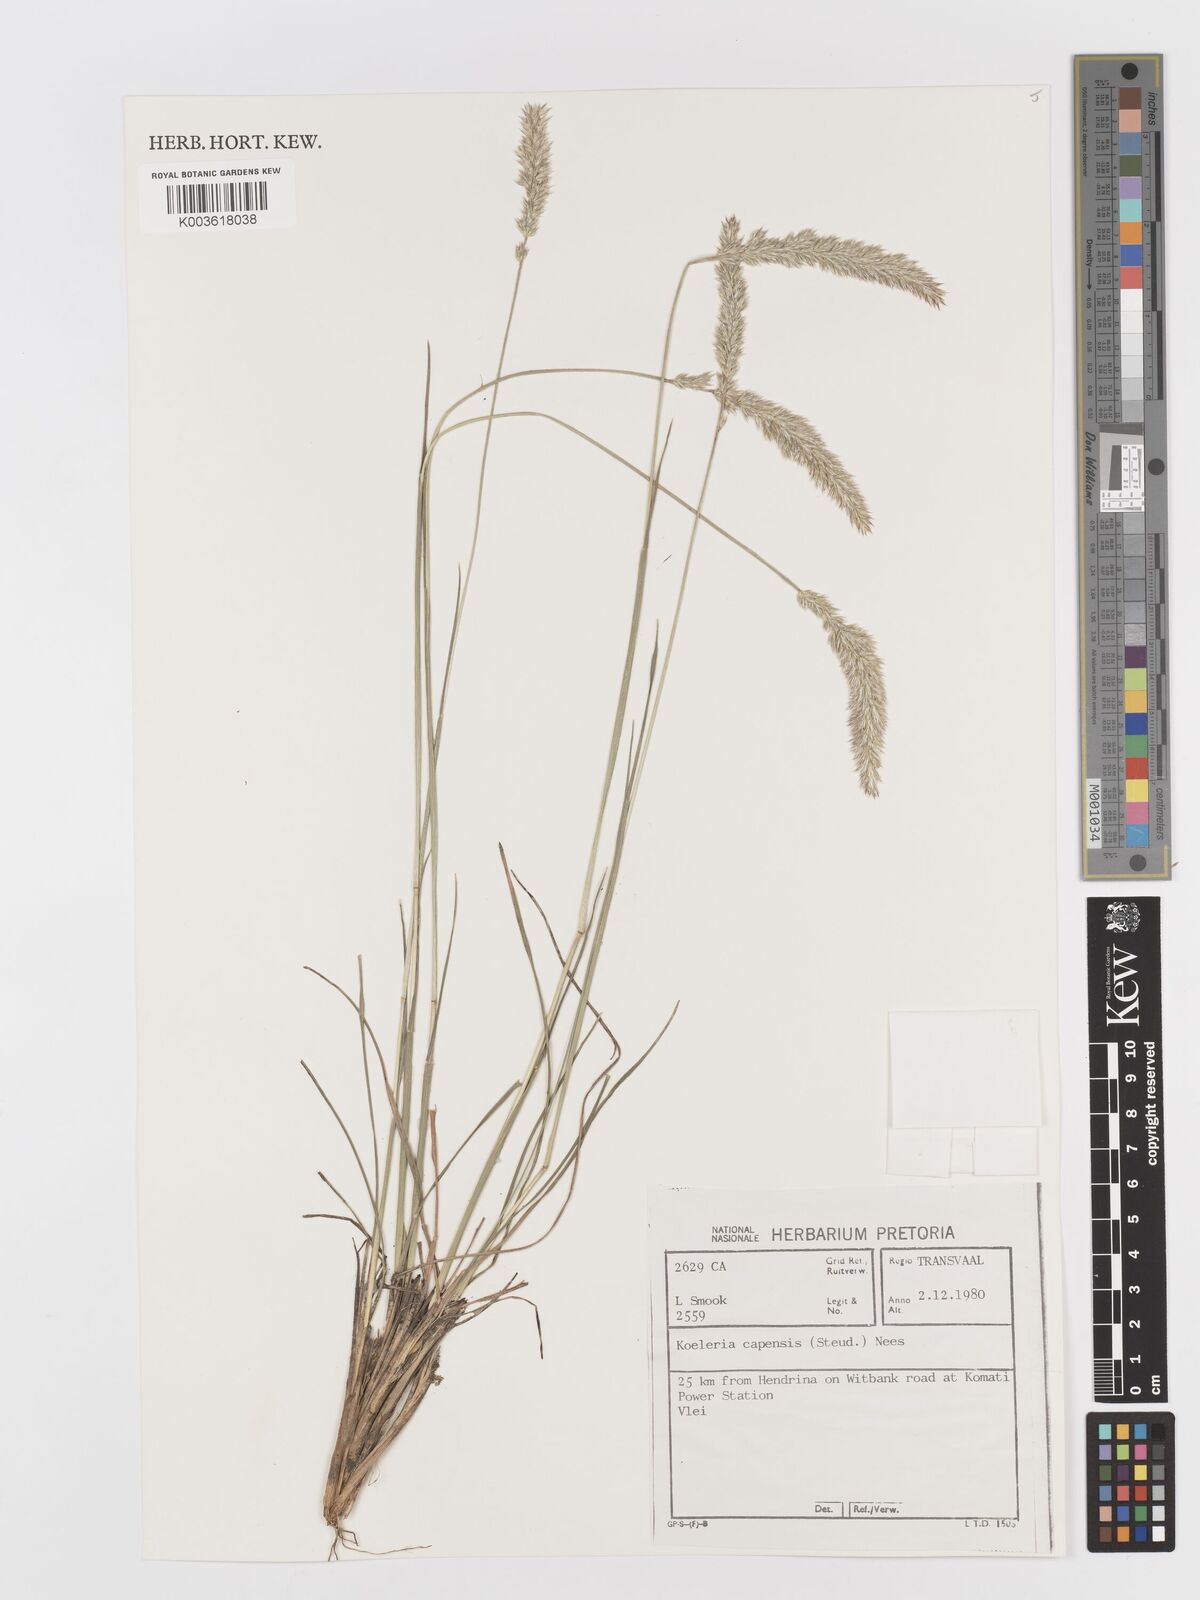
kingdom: Plantae
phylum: Tracheophyta
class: Liliopsida
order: Poales
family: Poaceae
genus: Koeleria
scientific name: Koeleria capensis
